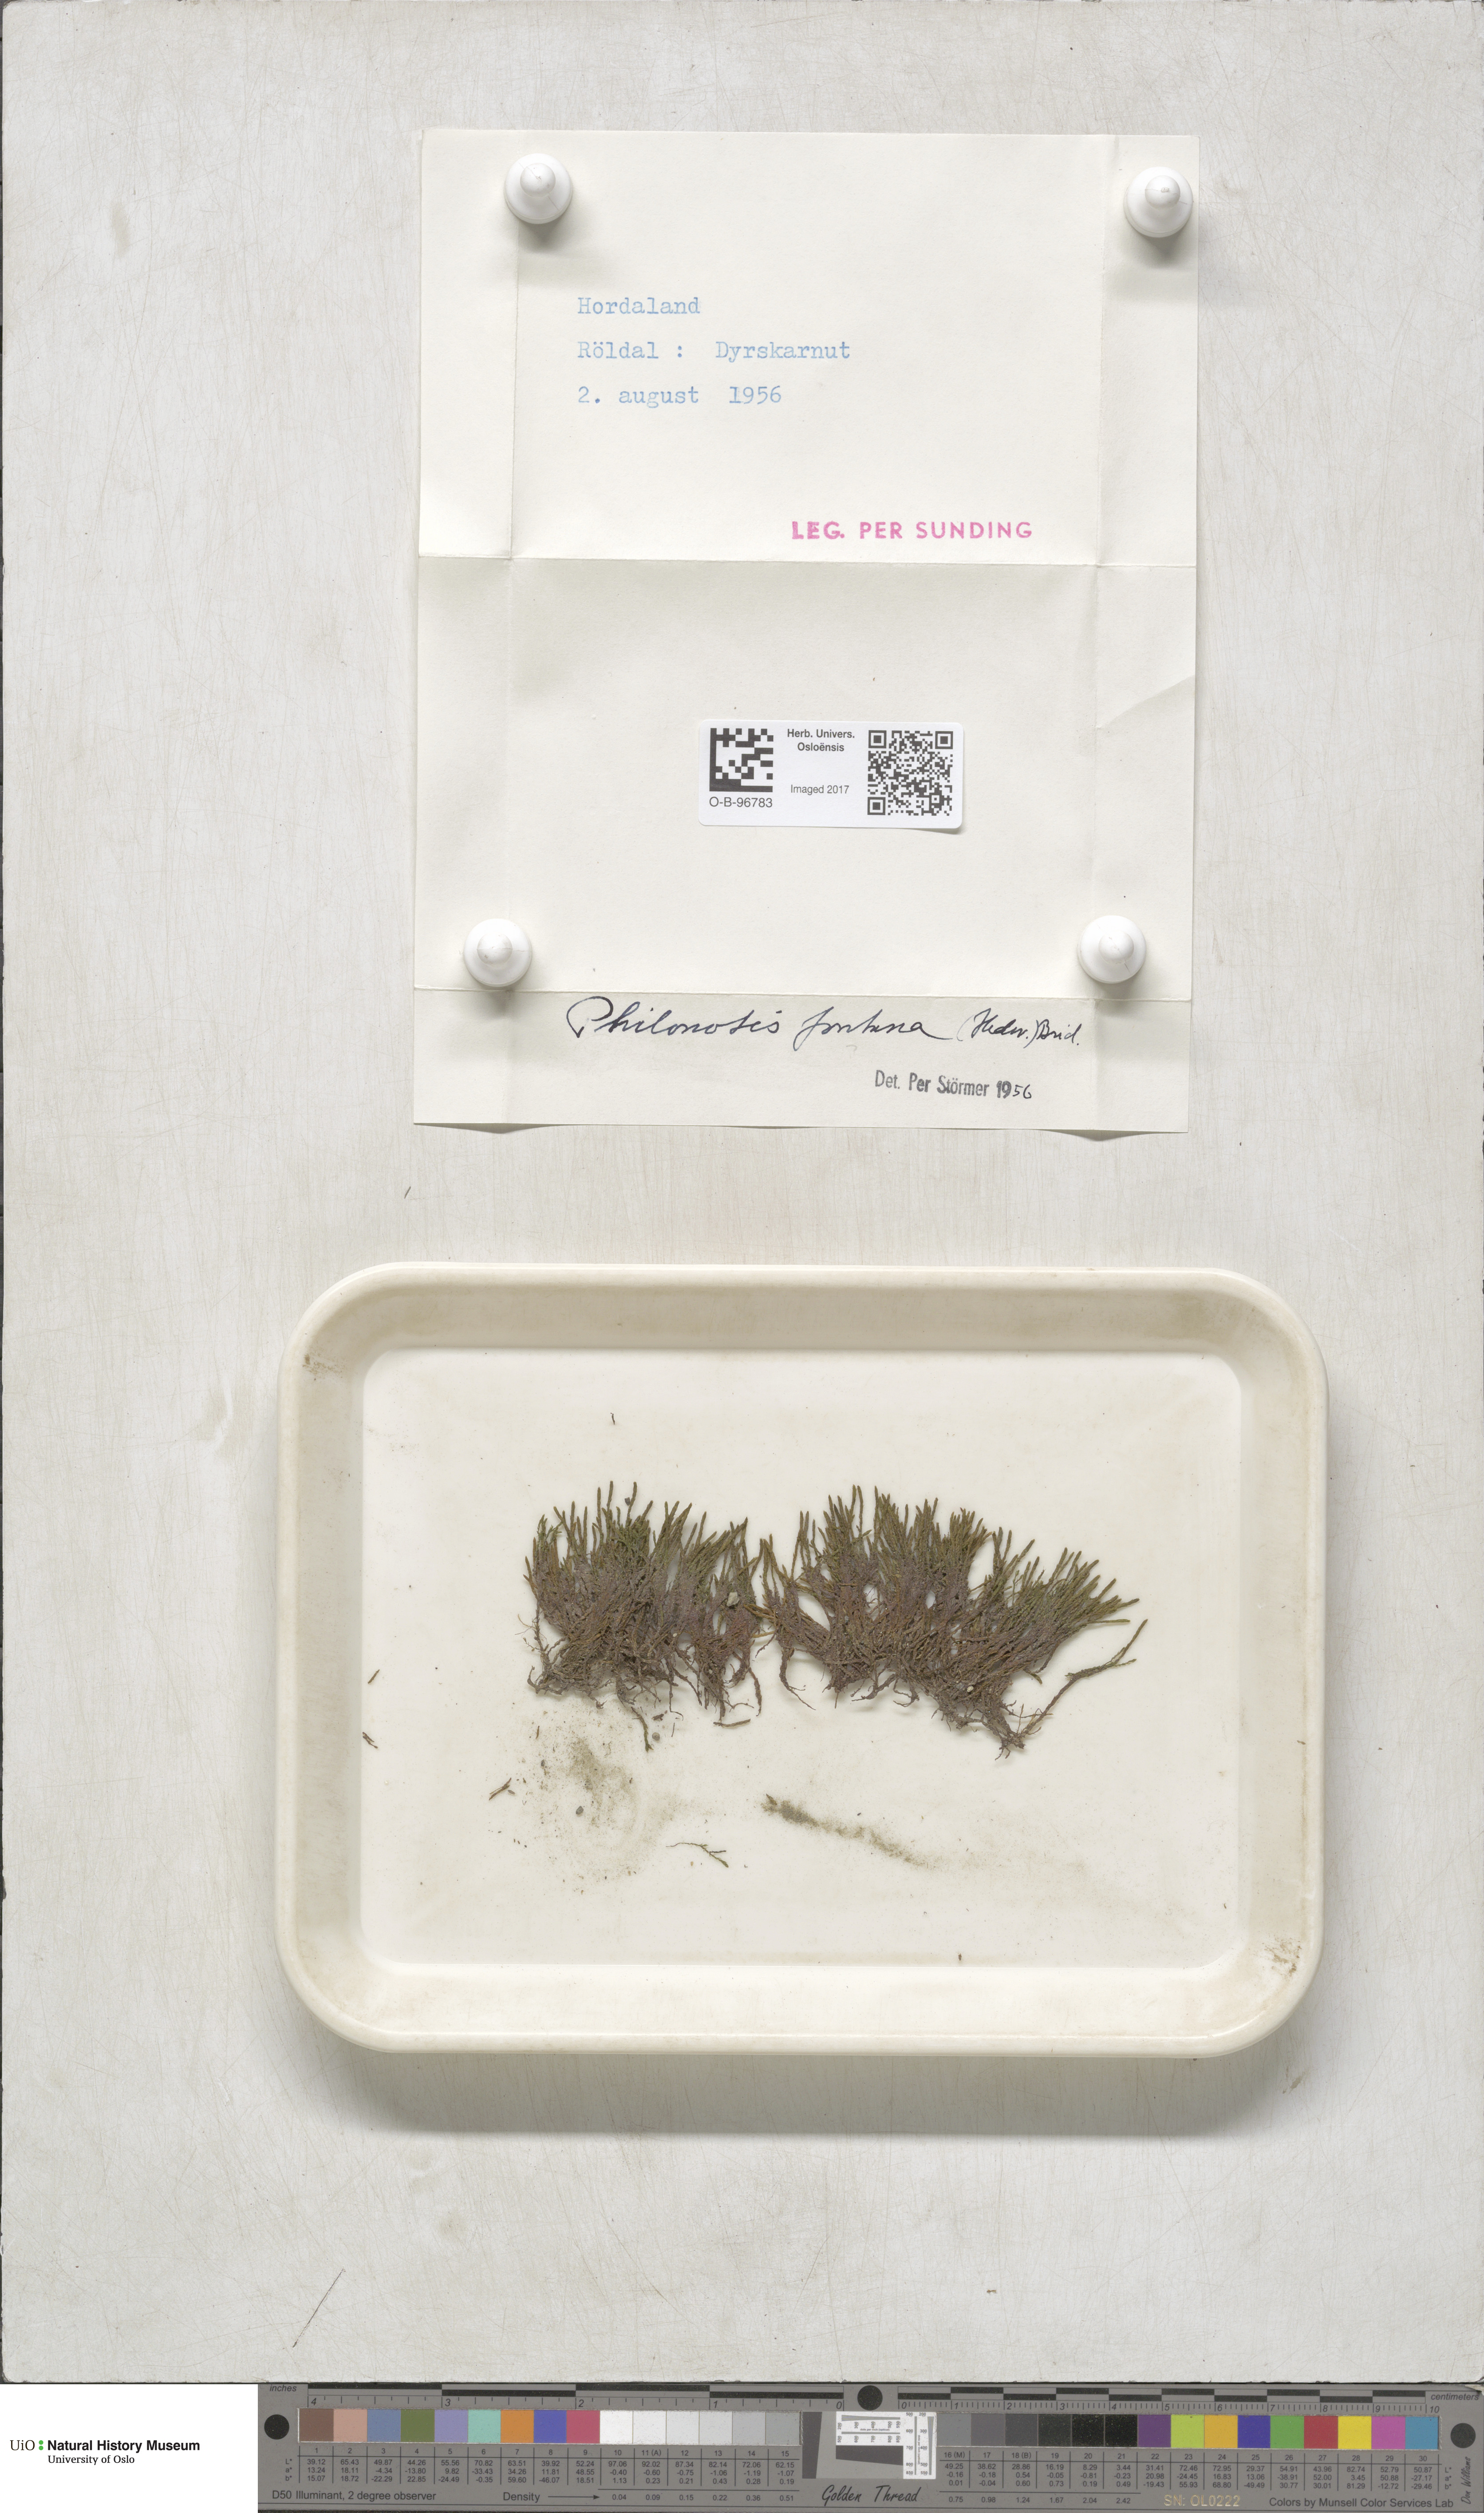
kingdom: Plantae
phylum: Bryophyta
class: Bryopsida
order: Bartramiales
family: Bartramiaceae
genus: Philonotis
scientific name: Philonotis fontana
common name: Fountain apple-moss
